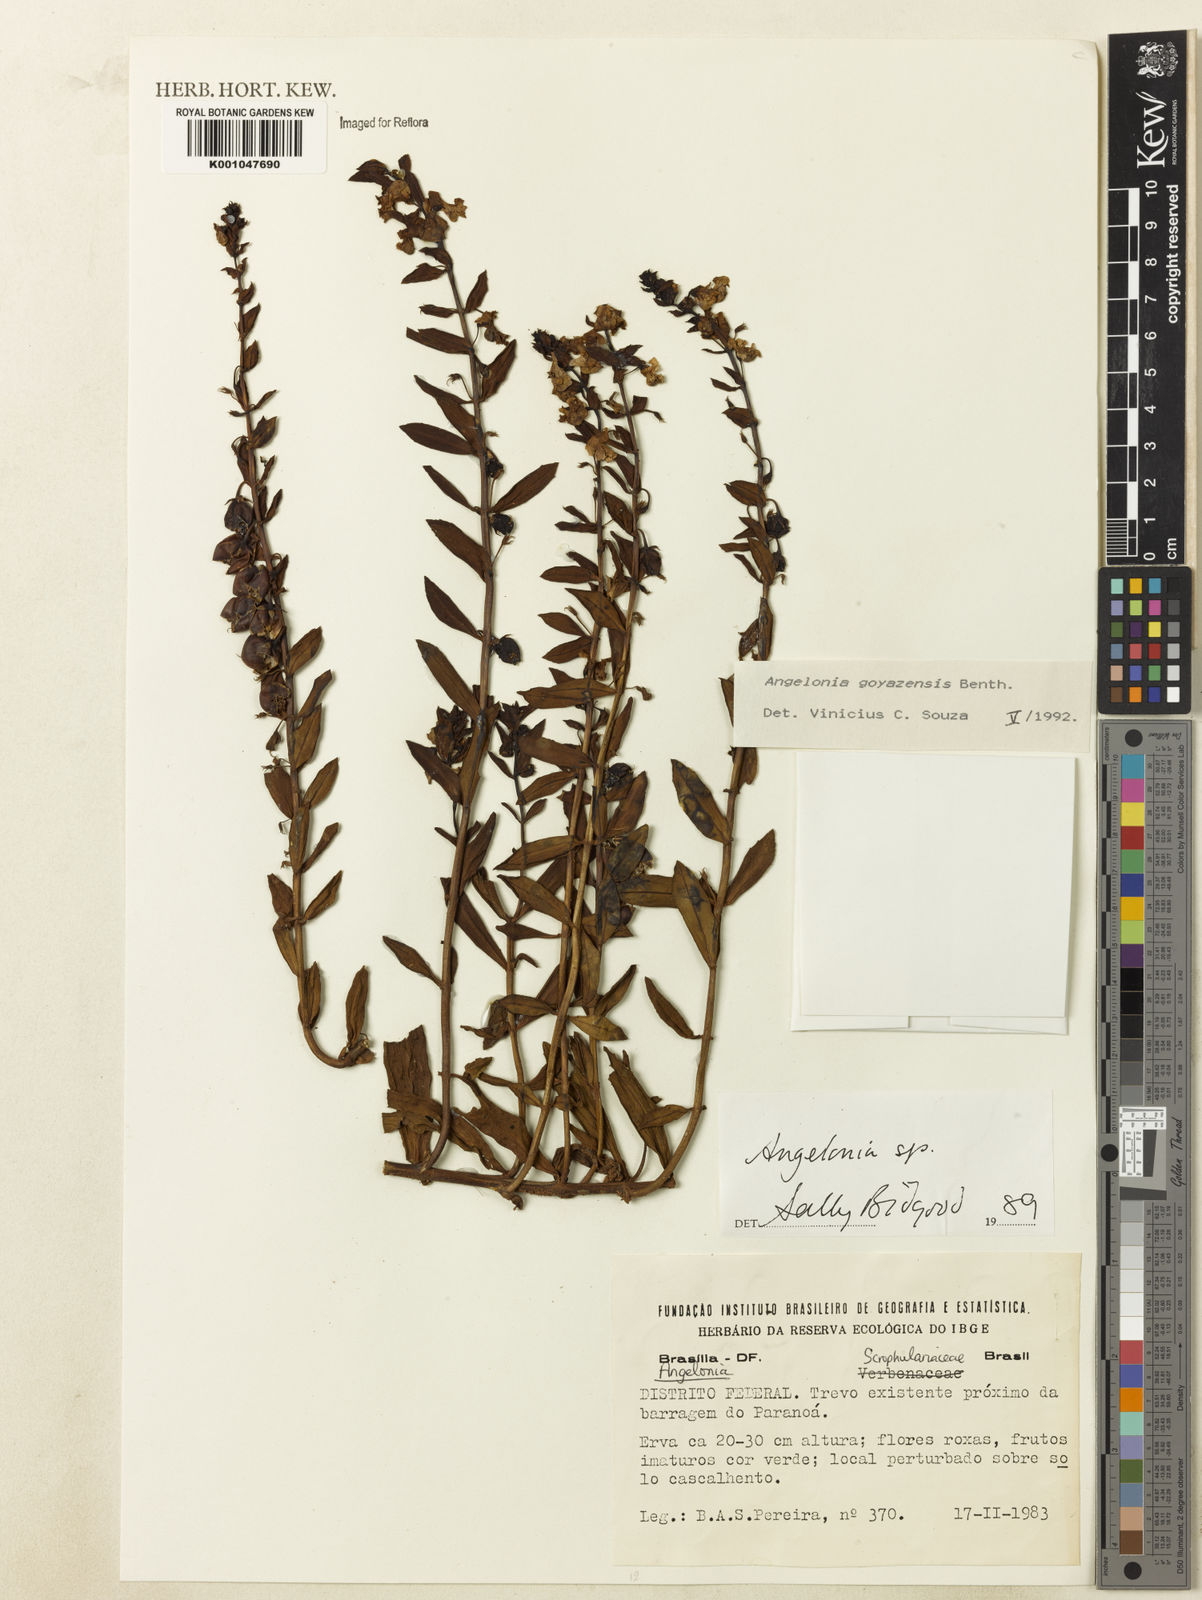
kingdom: Plantae
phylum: Tracheophyta
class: Magnoliopsida
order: Lamiales
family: Plantaginaceae
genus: Angelonia
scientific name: Angelonia goyazensis
